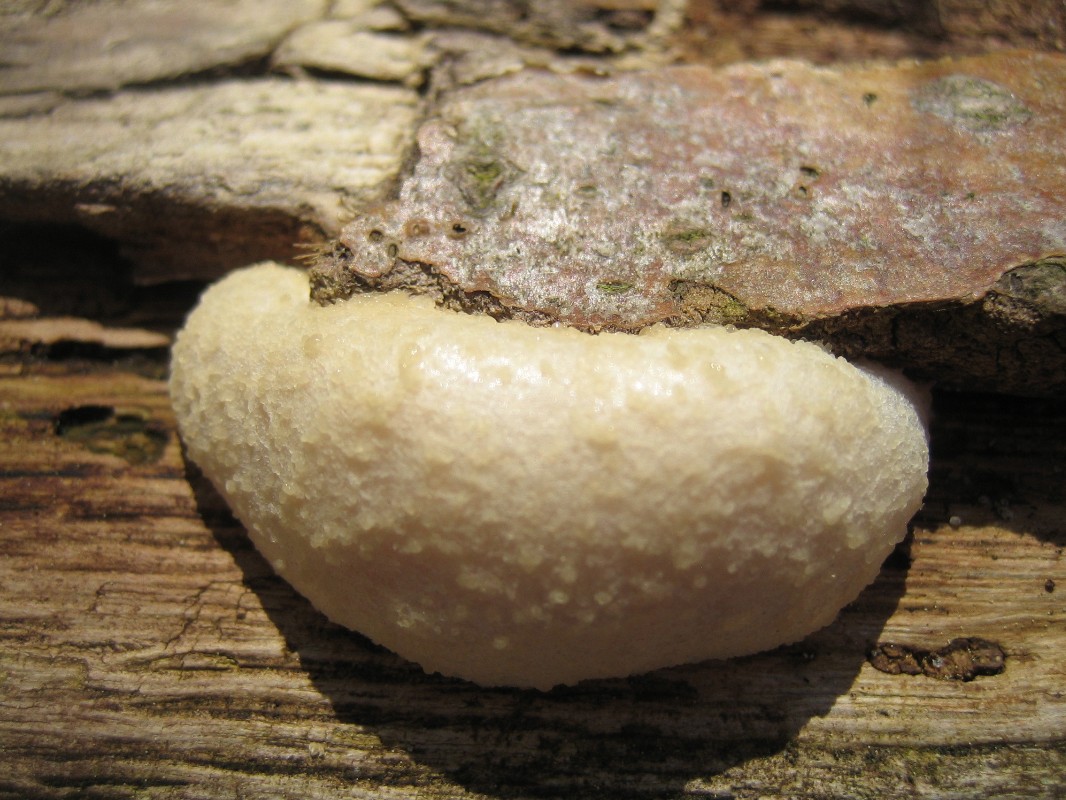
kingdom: Protozoa
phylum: Mycetozoa
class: Myxomycetes
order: Cribrariales
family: Tubiferaceae
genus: Reticularia
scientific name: Reticularia lycoperdon
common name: skinnende støvpude
